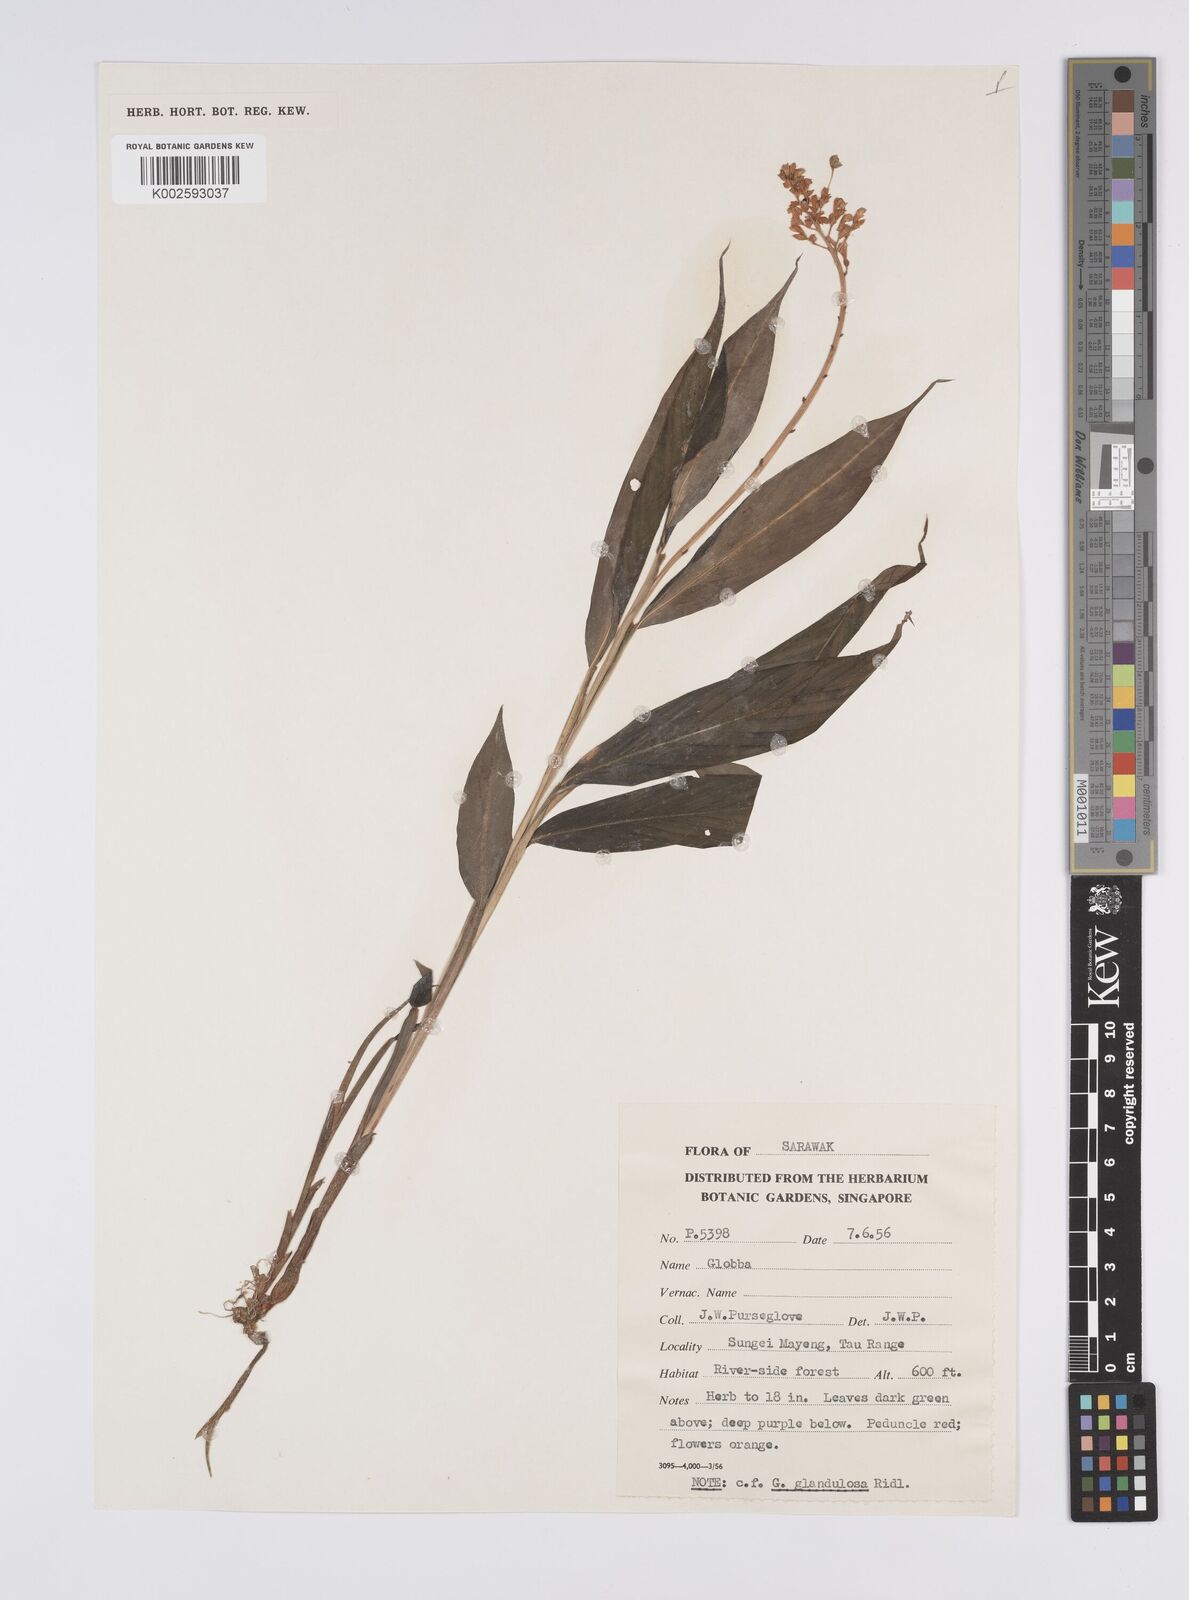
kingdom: Plantae
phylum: Tracheophyta
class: Liliopsida
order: Zingiberales
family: Zingiberaceae
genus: Globba
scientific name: Globba brachyanthera
